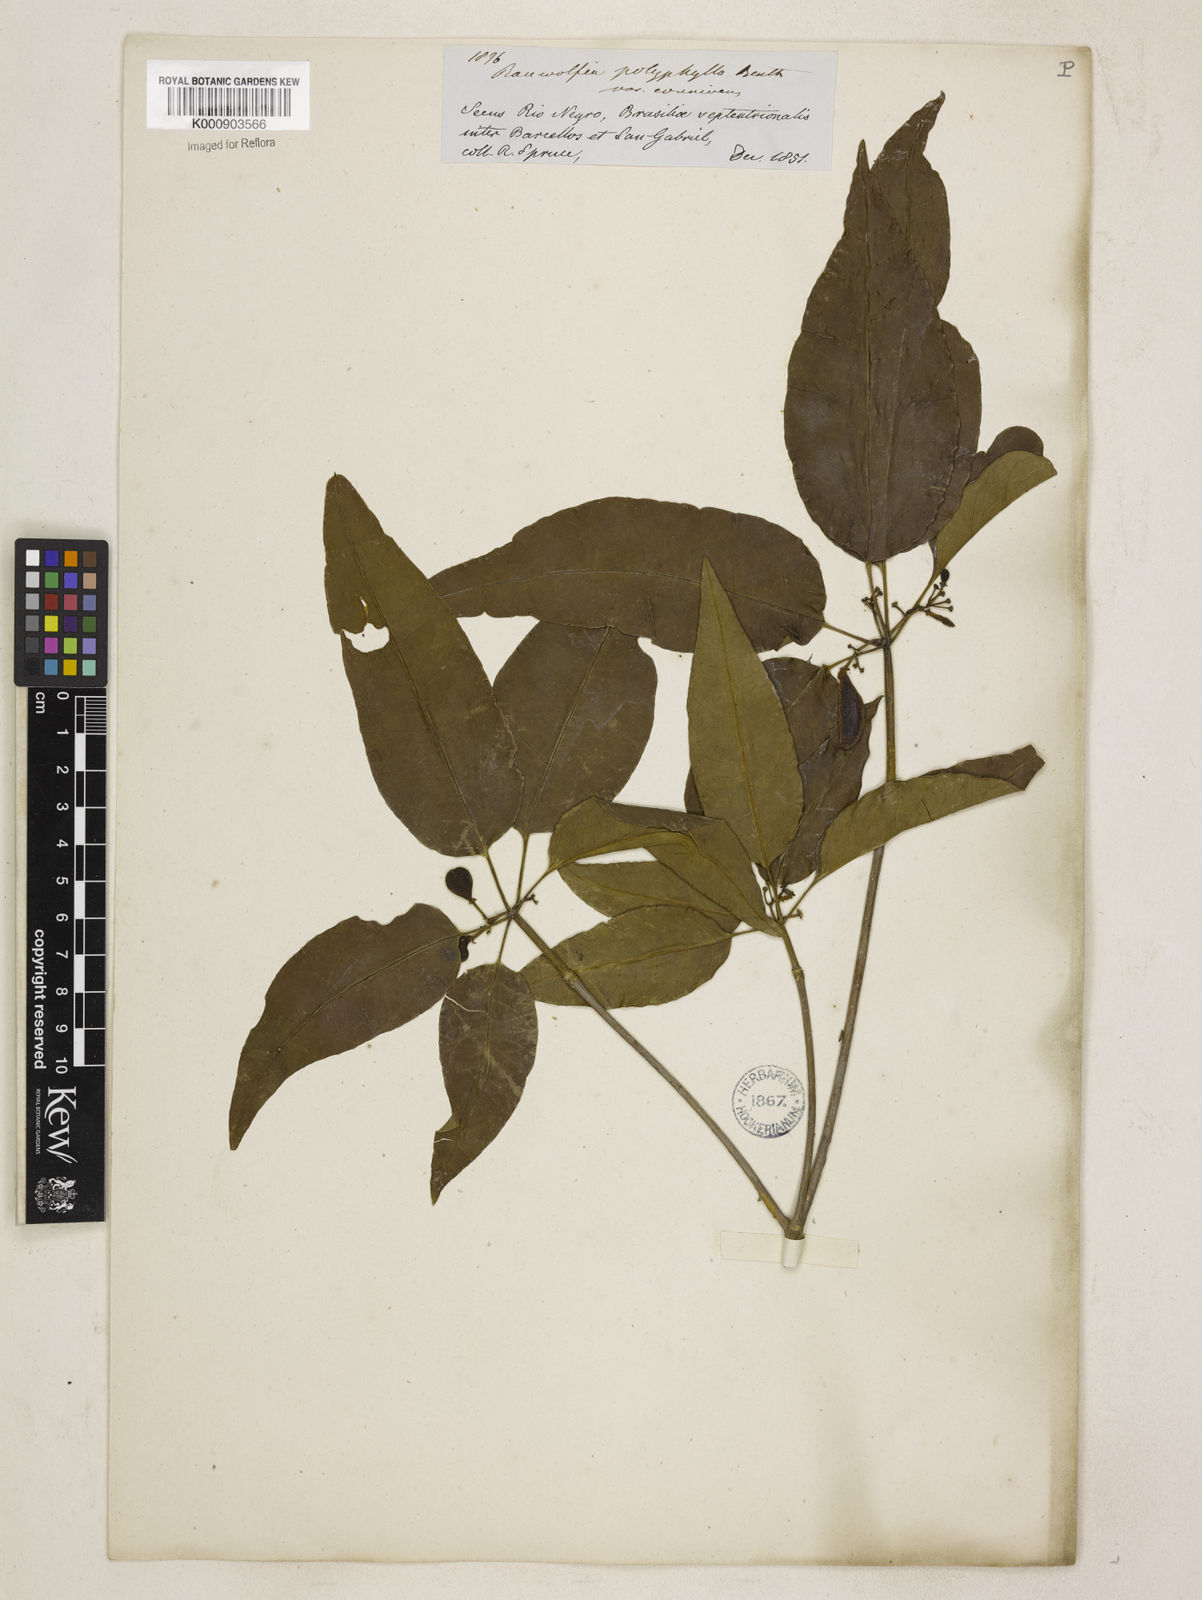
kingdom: Plantae
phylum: Tracheophyta
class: Magnoliopsida
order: Gentianales
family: Apocynaceae
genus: Rauvolfia
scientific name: Rauvolfia polyphylla
